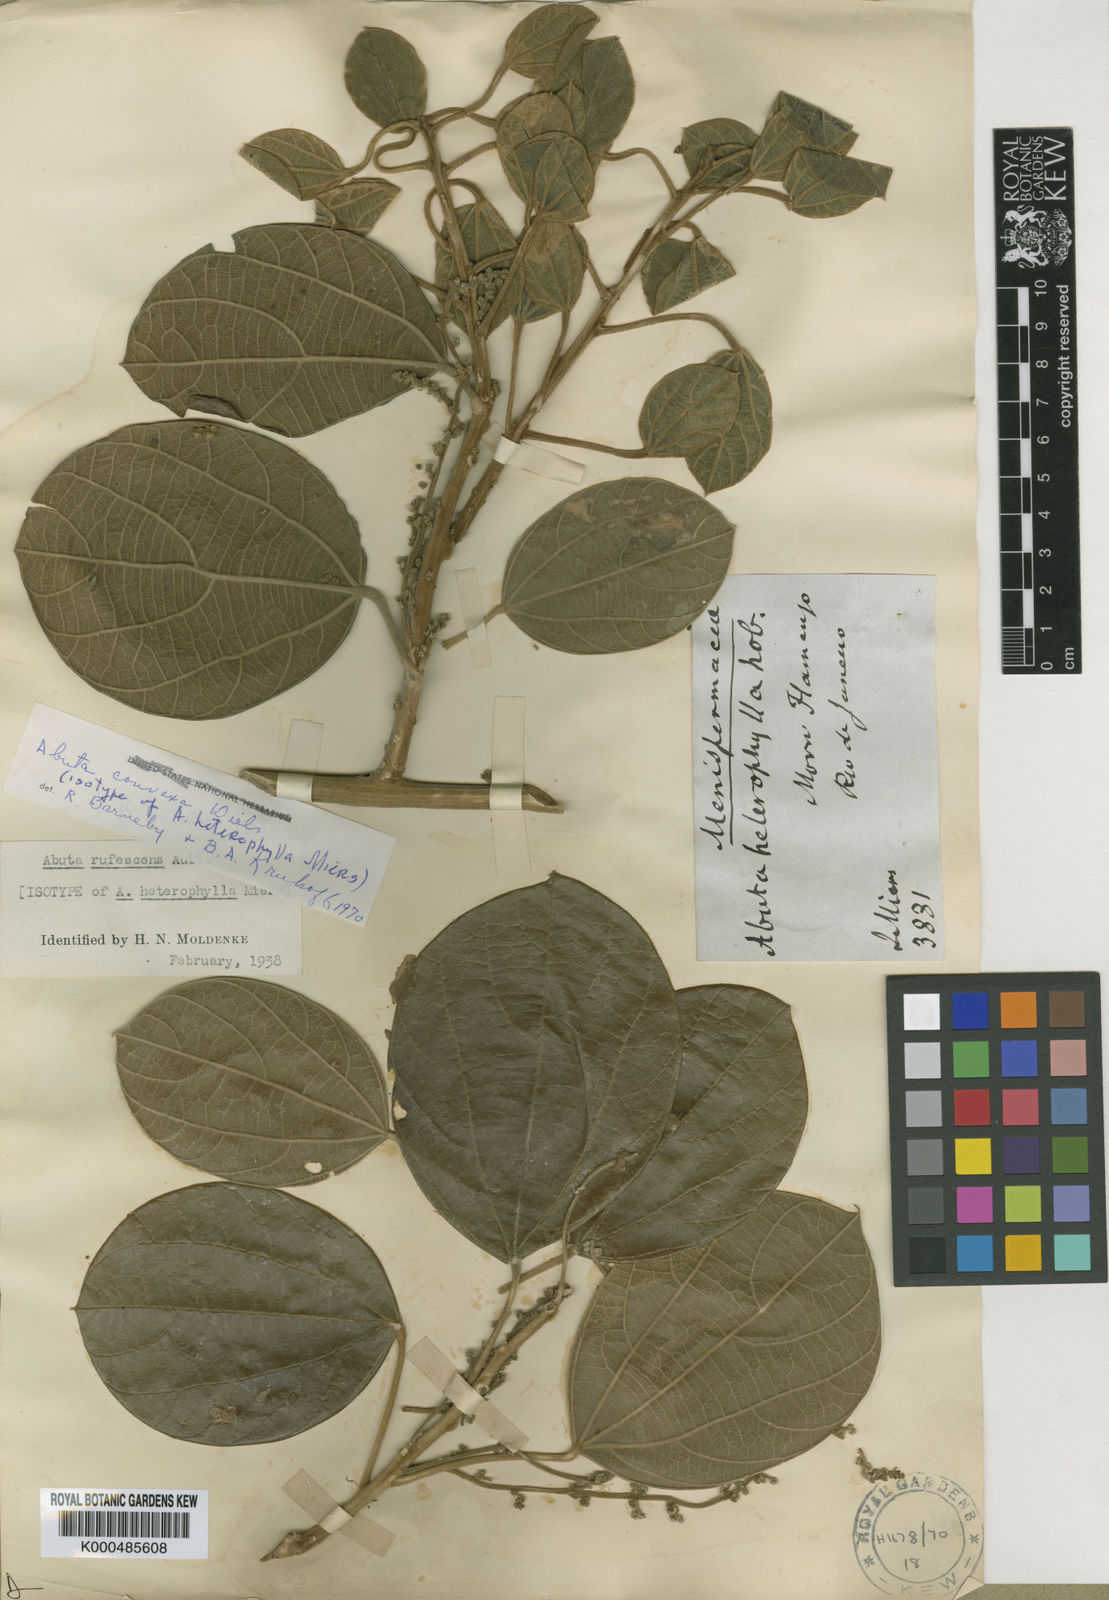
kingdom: Plantae
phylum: Tracheophyta
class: Magnoliopsida
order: Ranunculales
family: Menispermaceae
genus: Abuta
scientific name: Abuta rufescens
